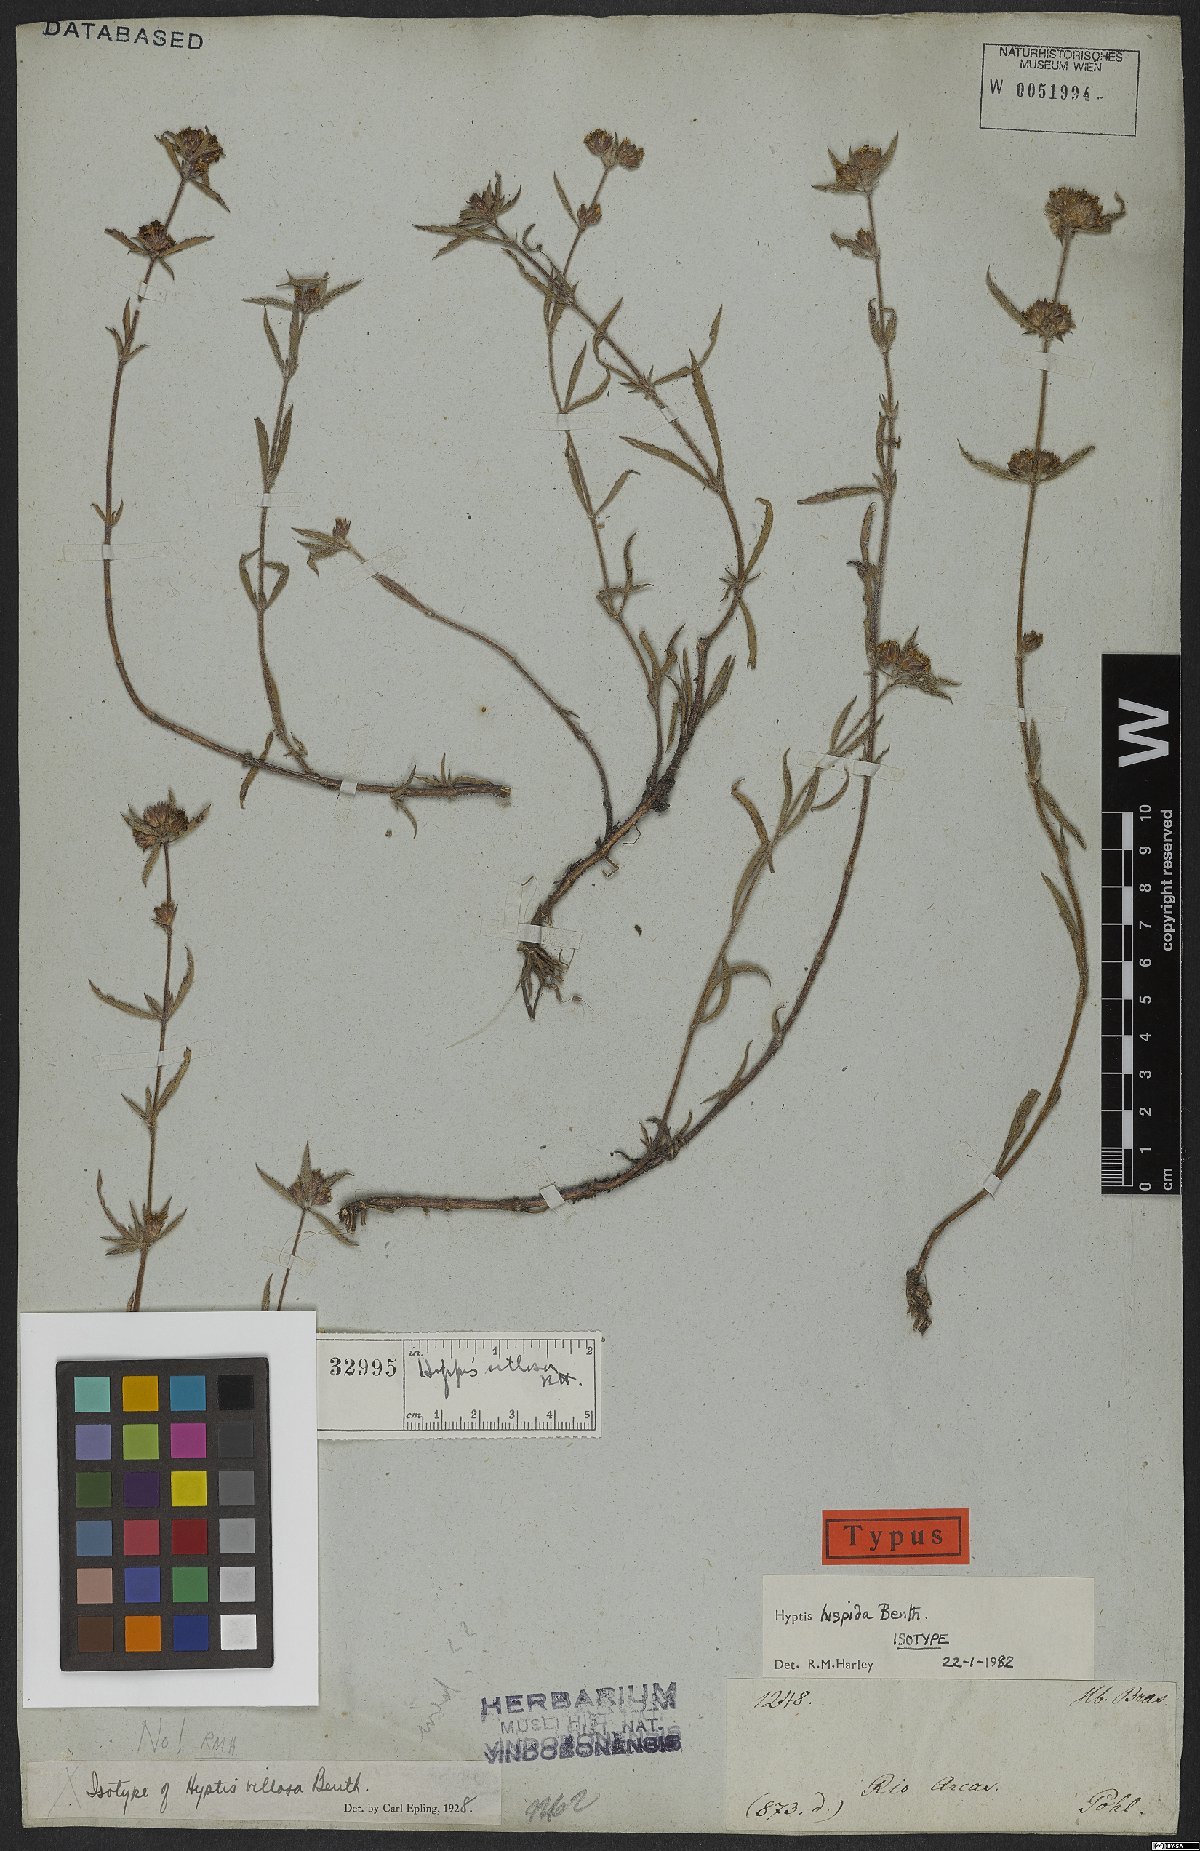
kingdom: Plantae
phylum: Tracheophyta
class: Magnoliopsida
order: Lamiales
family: Lamiaceae
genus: Hyptis
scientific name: Hyptis hispida
